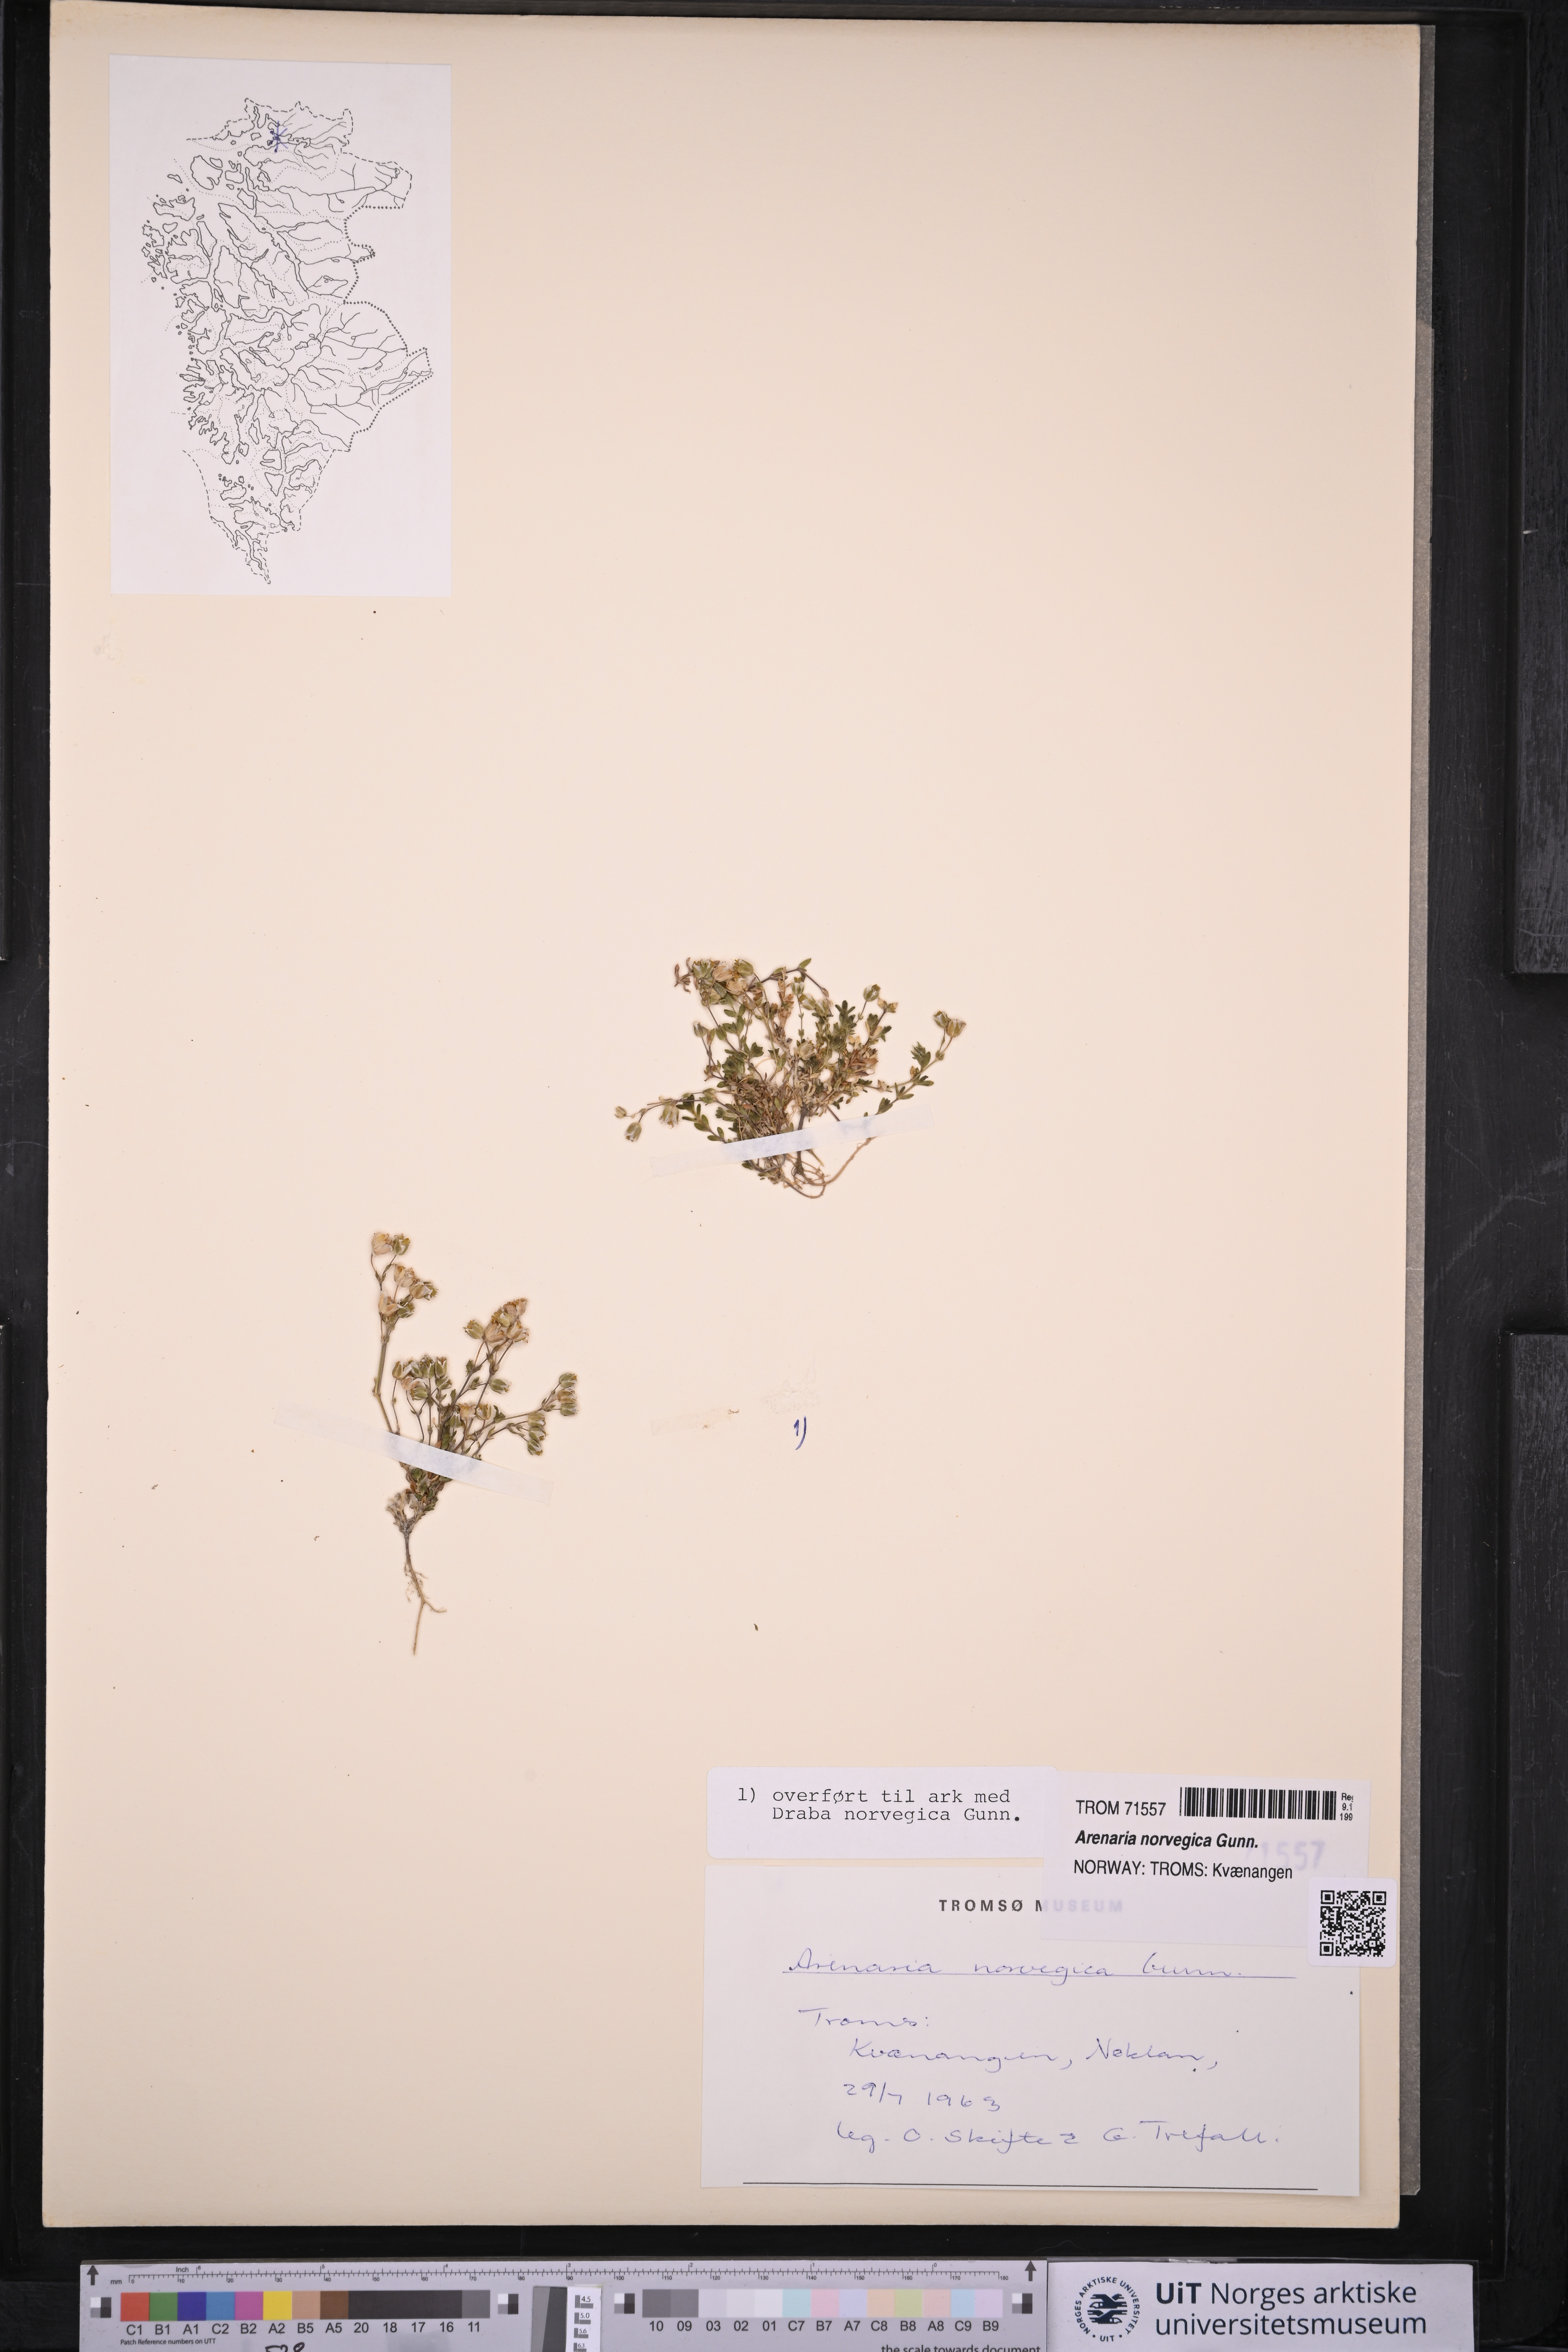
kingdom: Plantae
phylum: Tracheophyta
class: Magnoliopsida
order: Caryophyllales
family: Caryophyllaceae
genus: Arenaria
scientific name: Arenaria norvegica
